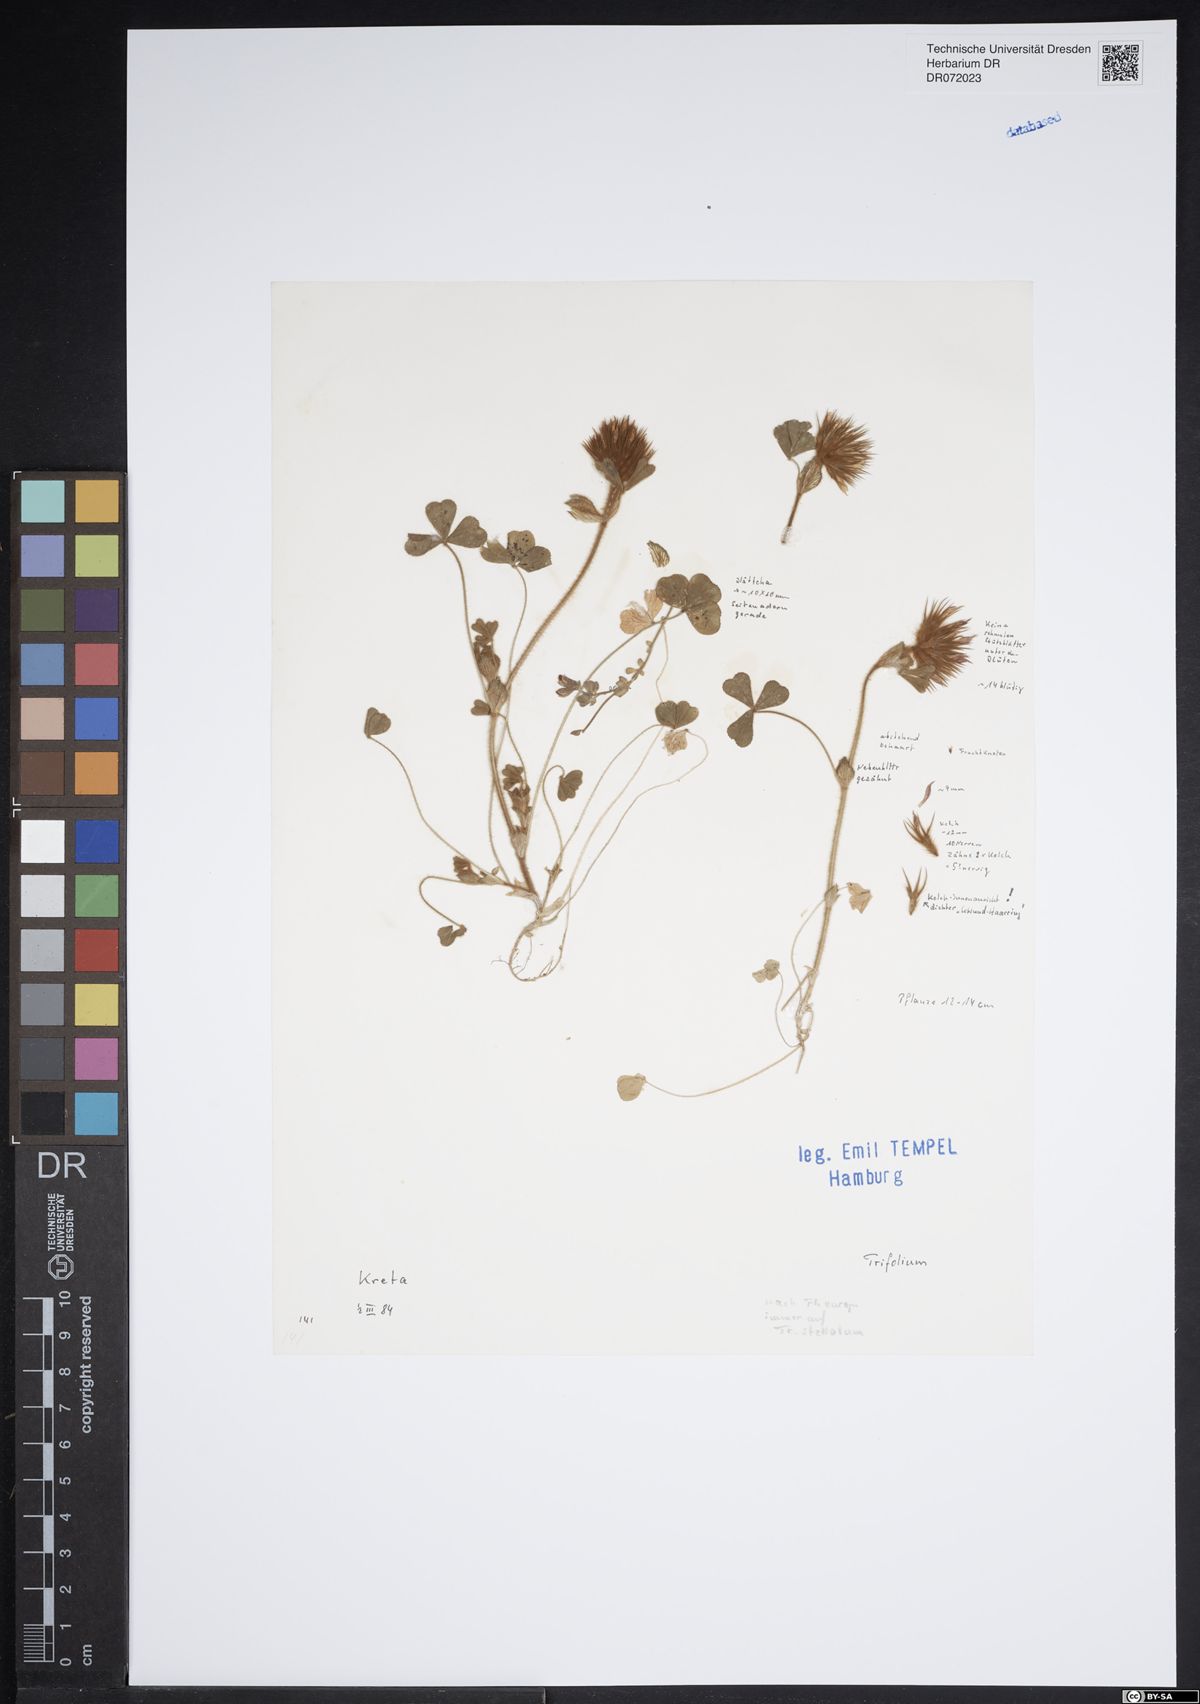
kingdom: Plantae
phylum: Tracheophyta
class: Magnoliopsida
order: Fabales
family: Fabaceae
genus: Trifolium
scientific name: Trifolium
